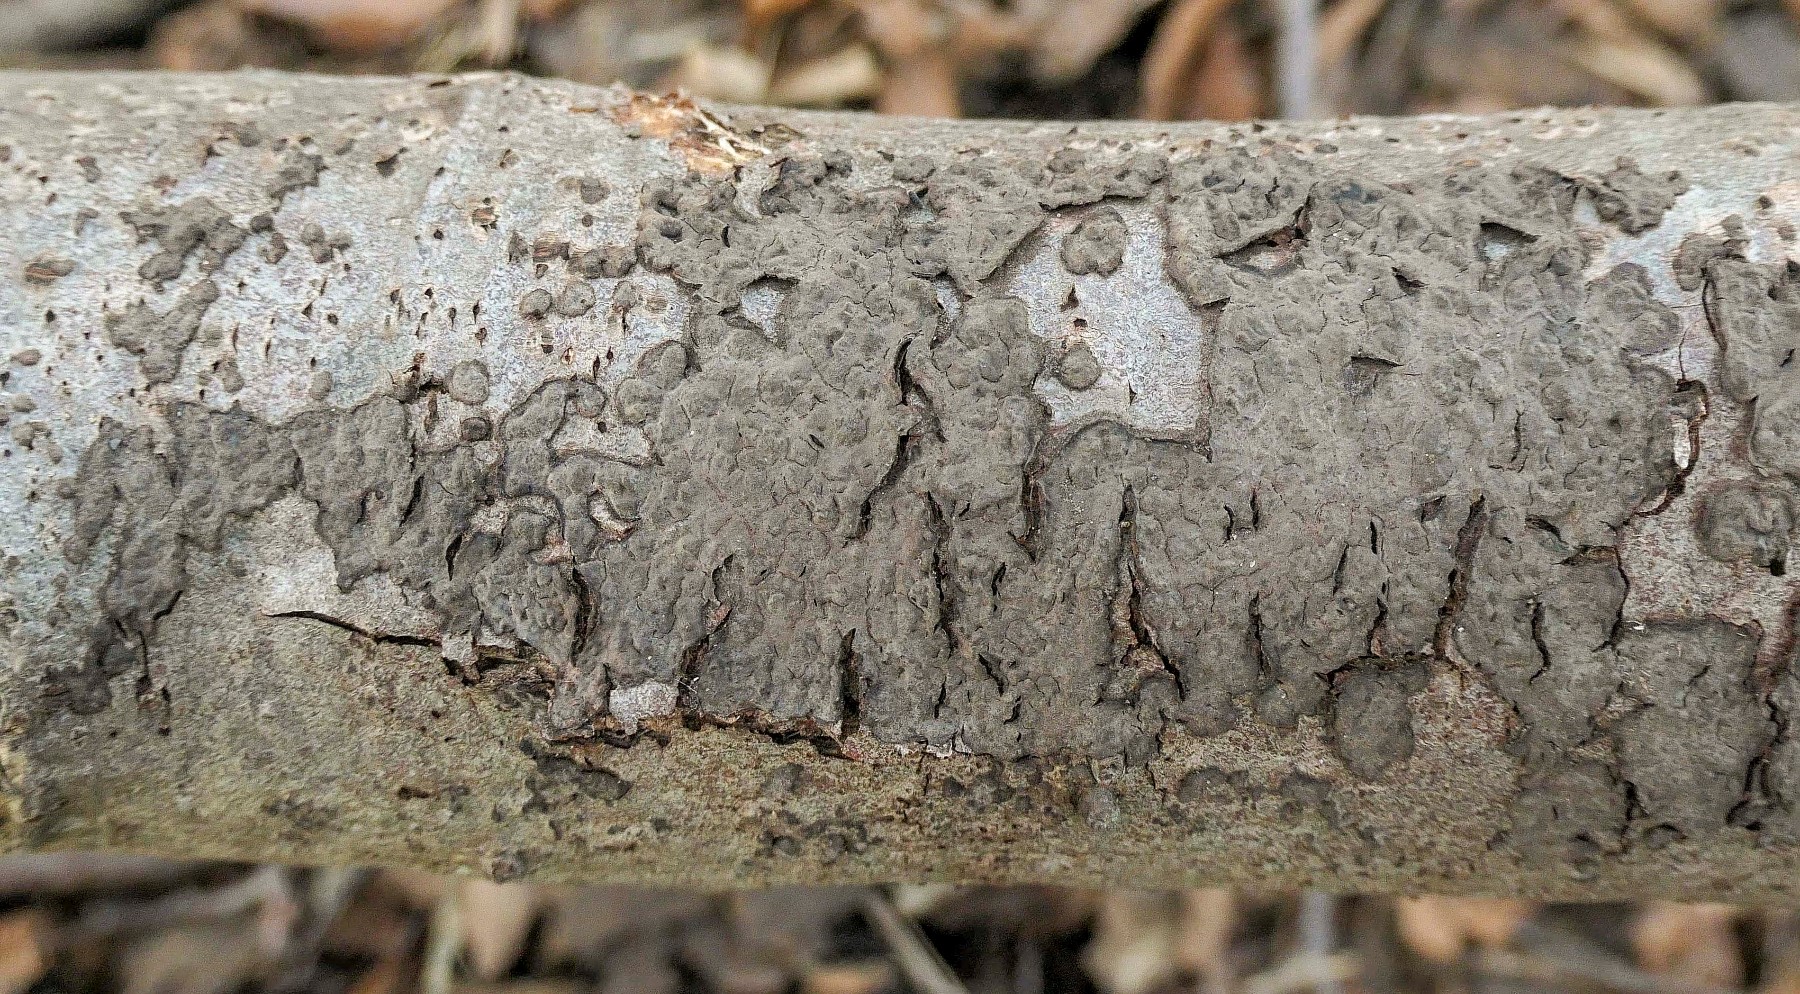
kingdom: Fungi
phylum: Basidiomycota
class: Agaricomycetes
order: Russulales
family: Peniophoraceae
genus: Peniophora
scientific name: Peniophora rufomarginata
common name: linde-voksskind
